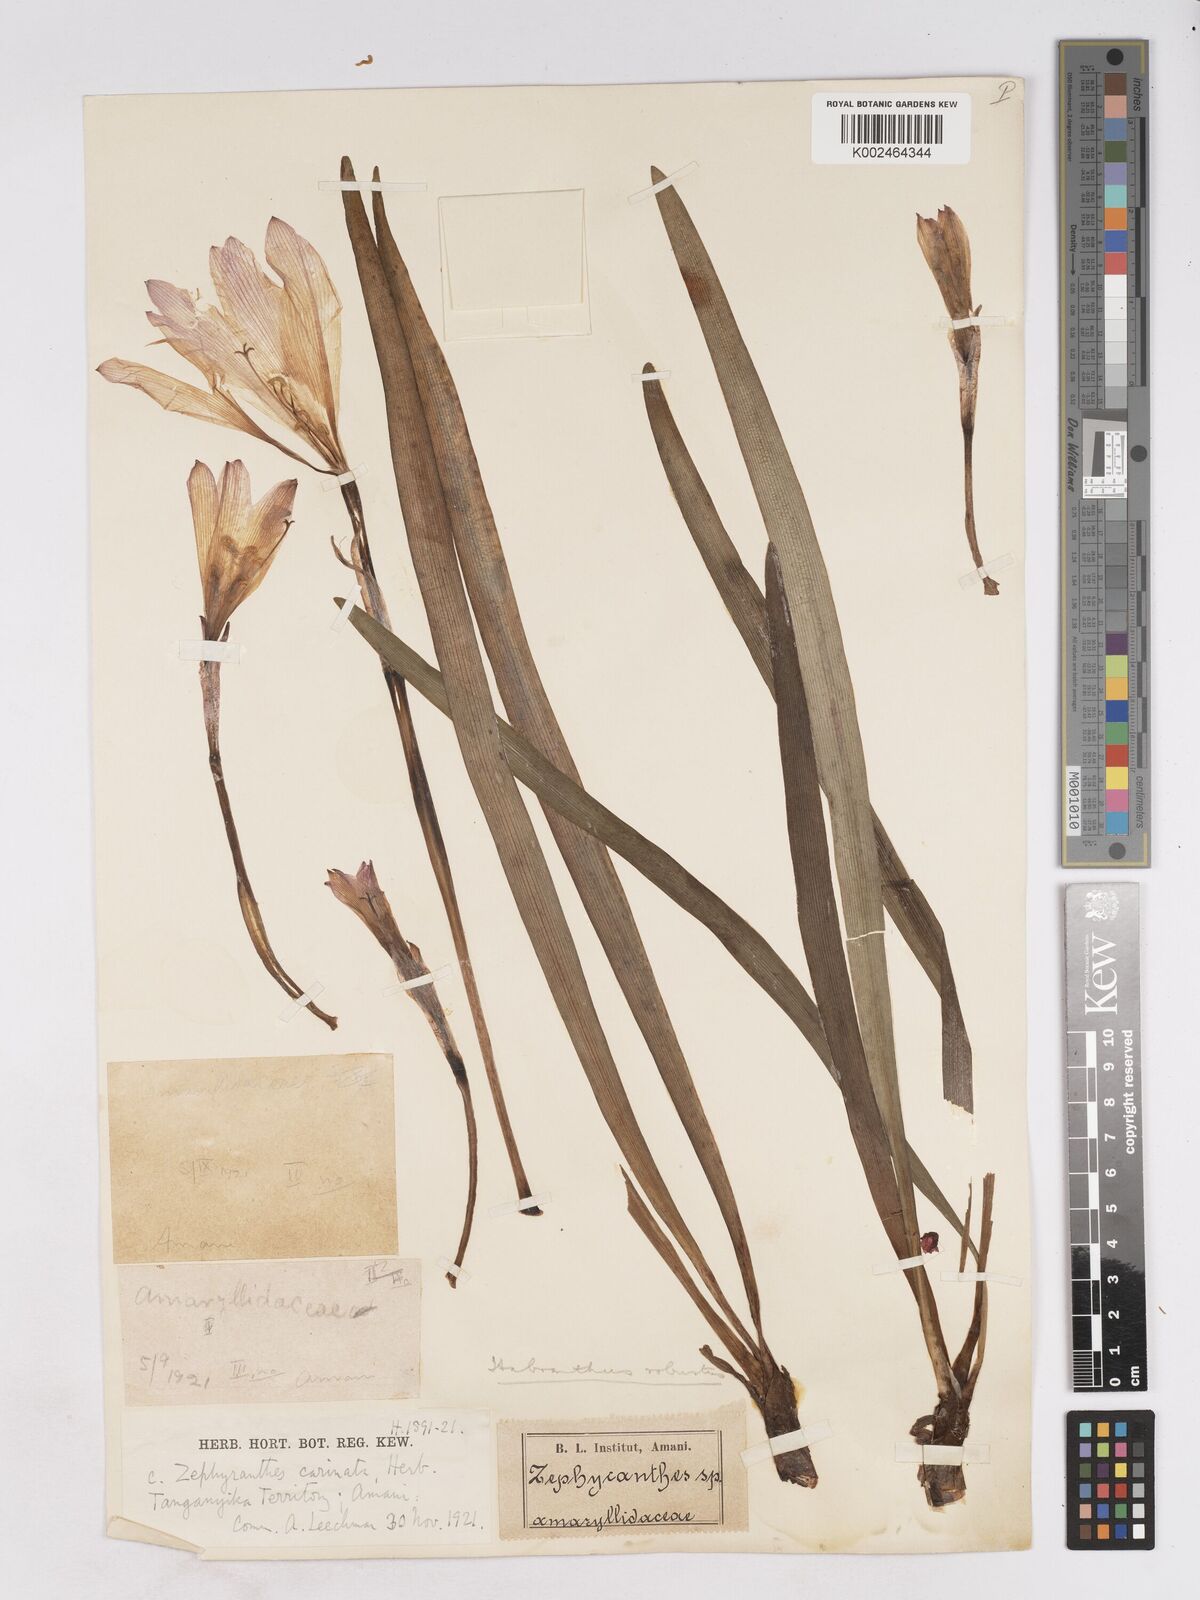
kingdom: Plantae
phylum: Tracheophyta
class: Liliopsida
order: Asparagales
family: Amaryllidaceae
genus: Zephyranthes
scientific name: Zephyranthes robusta
